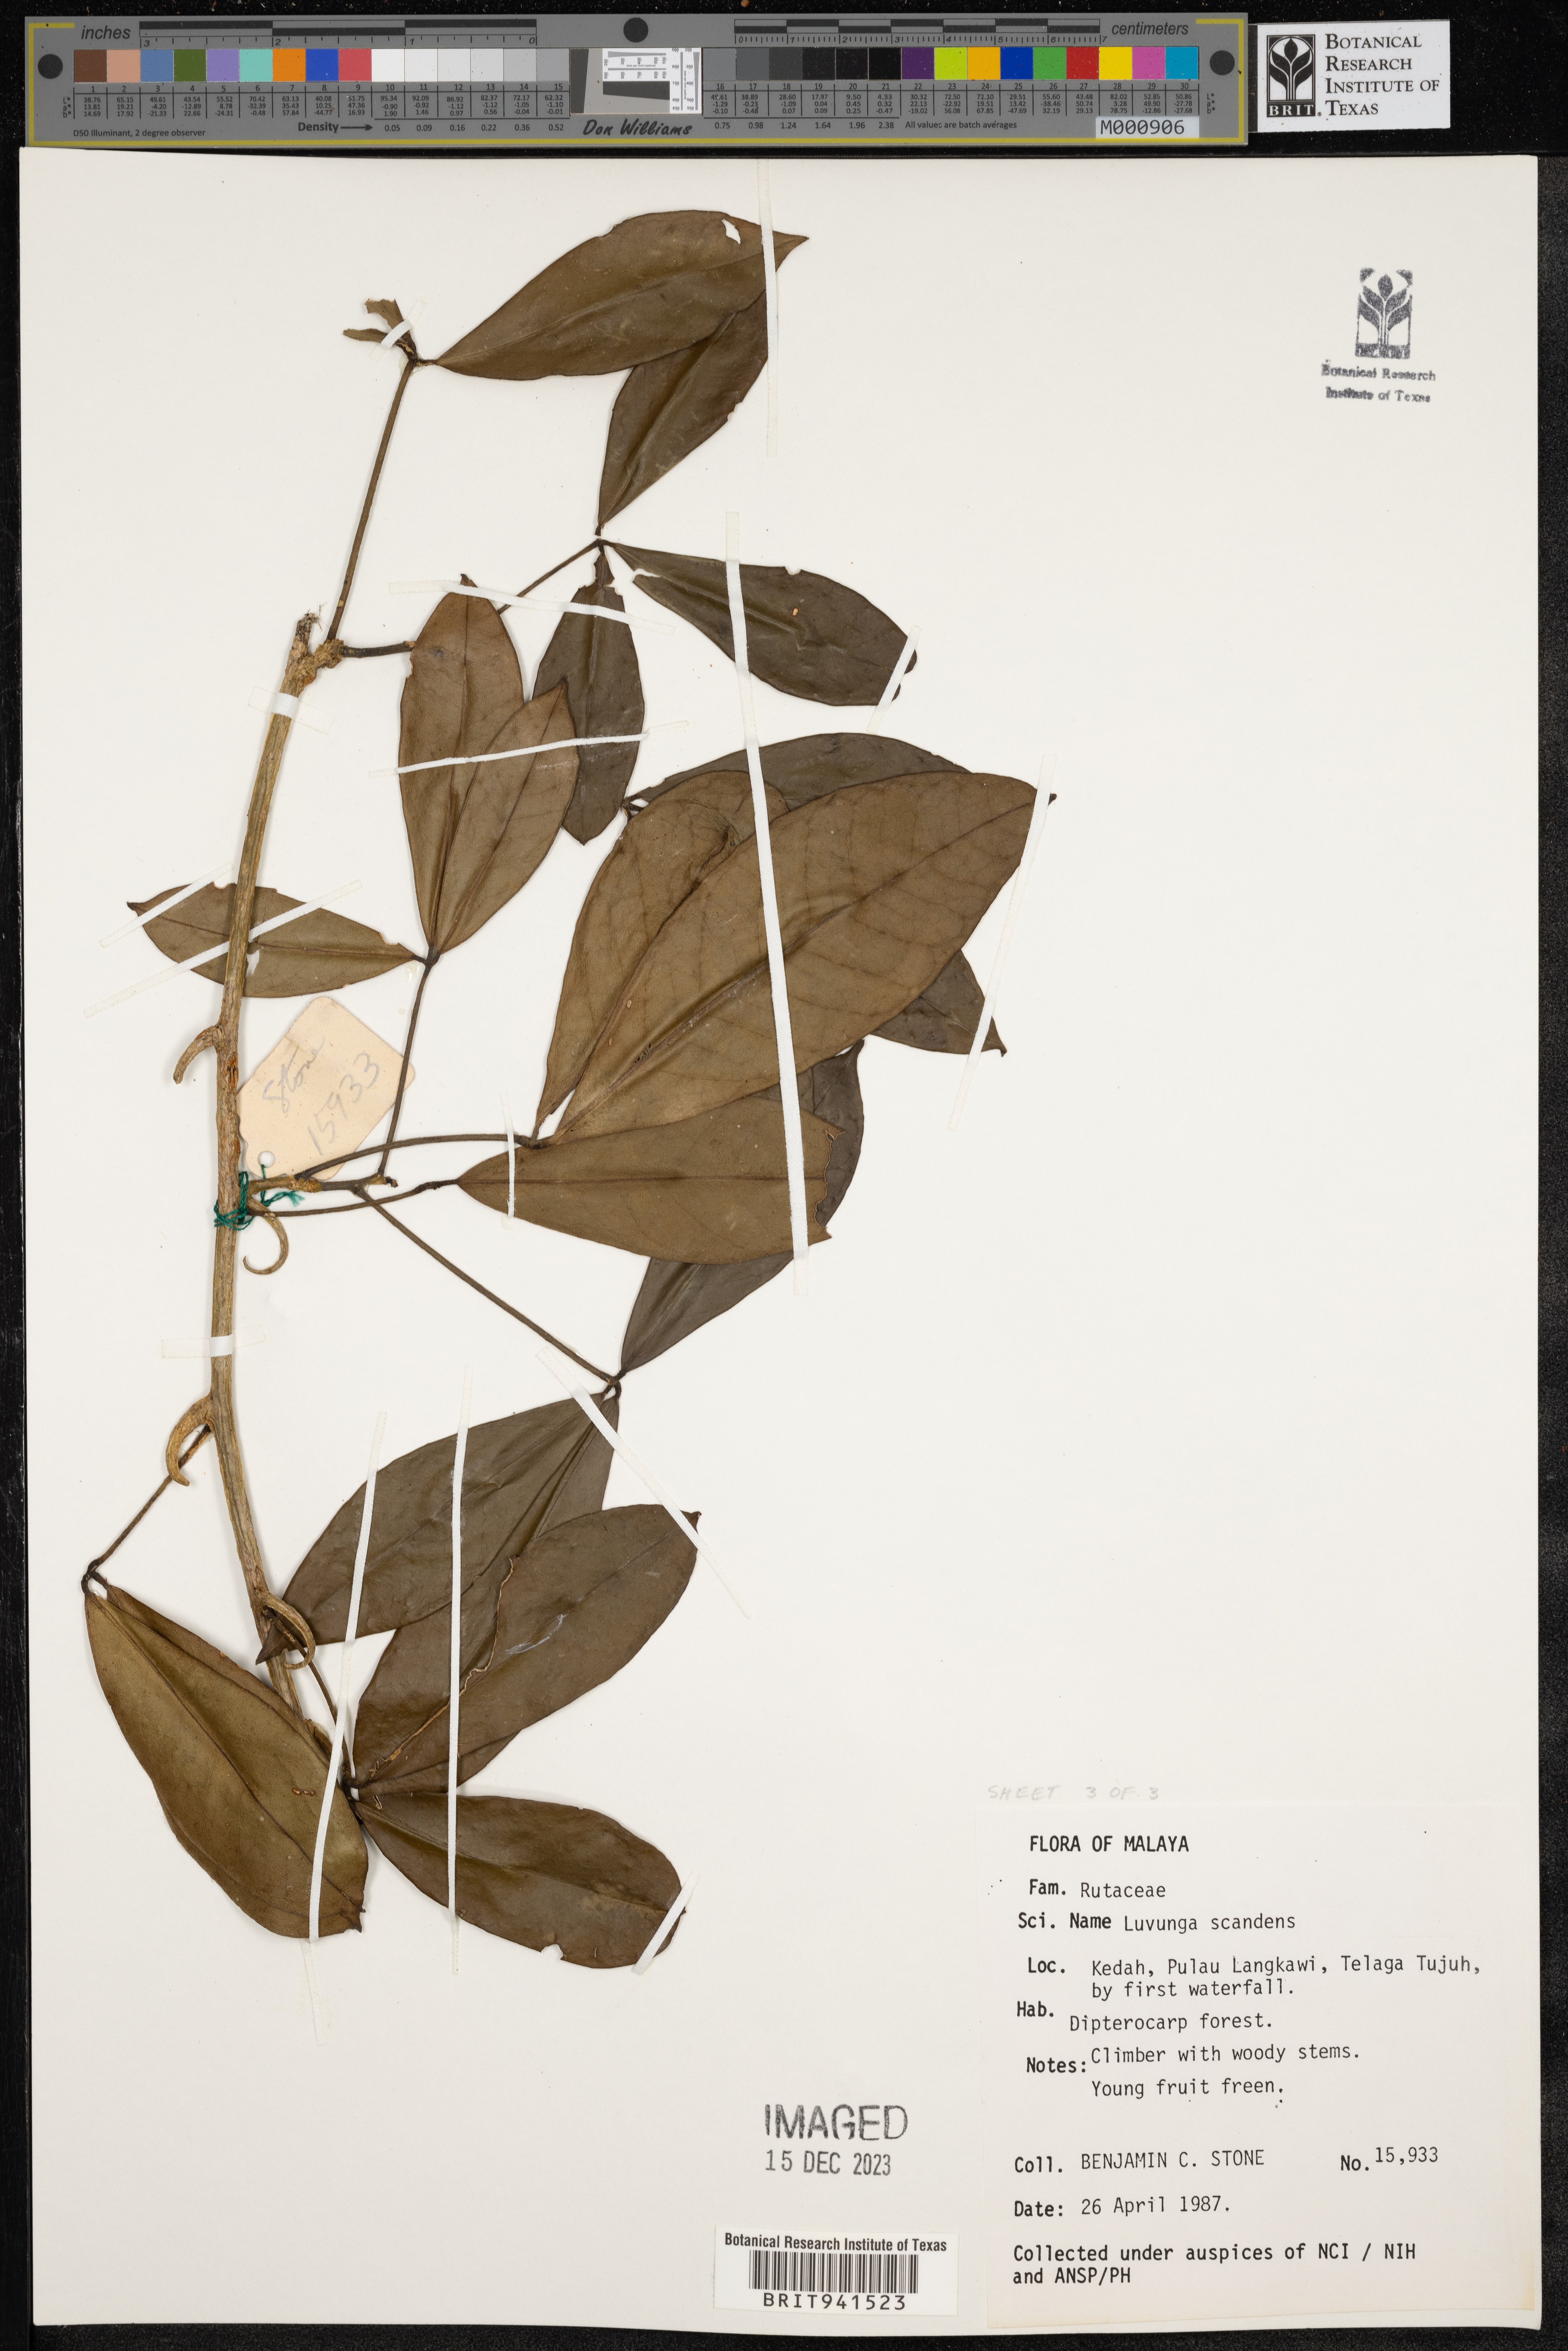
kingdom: Plantae
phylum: Tracheophyta
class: Magnoliopsida
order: Sapindales
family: Rutaceae
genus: Luvunga
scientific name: Luvunga
